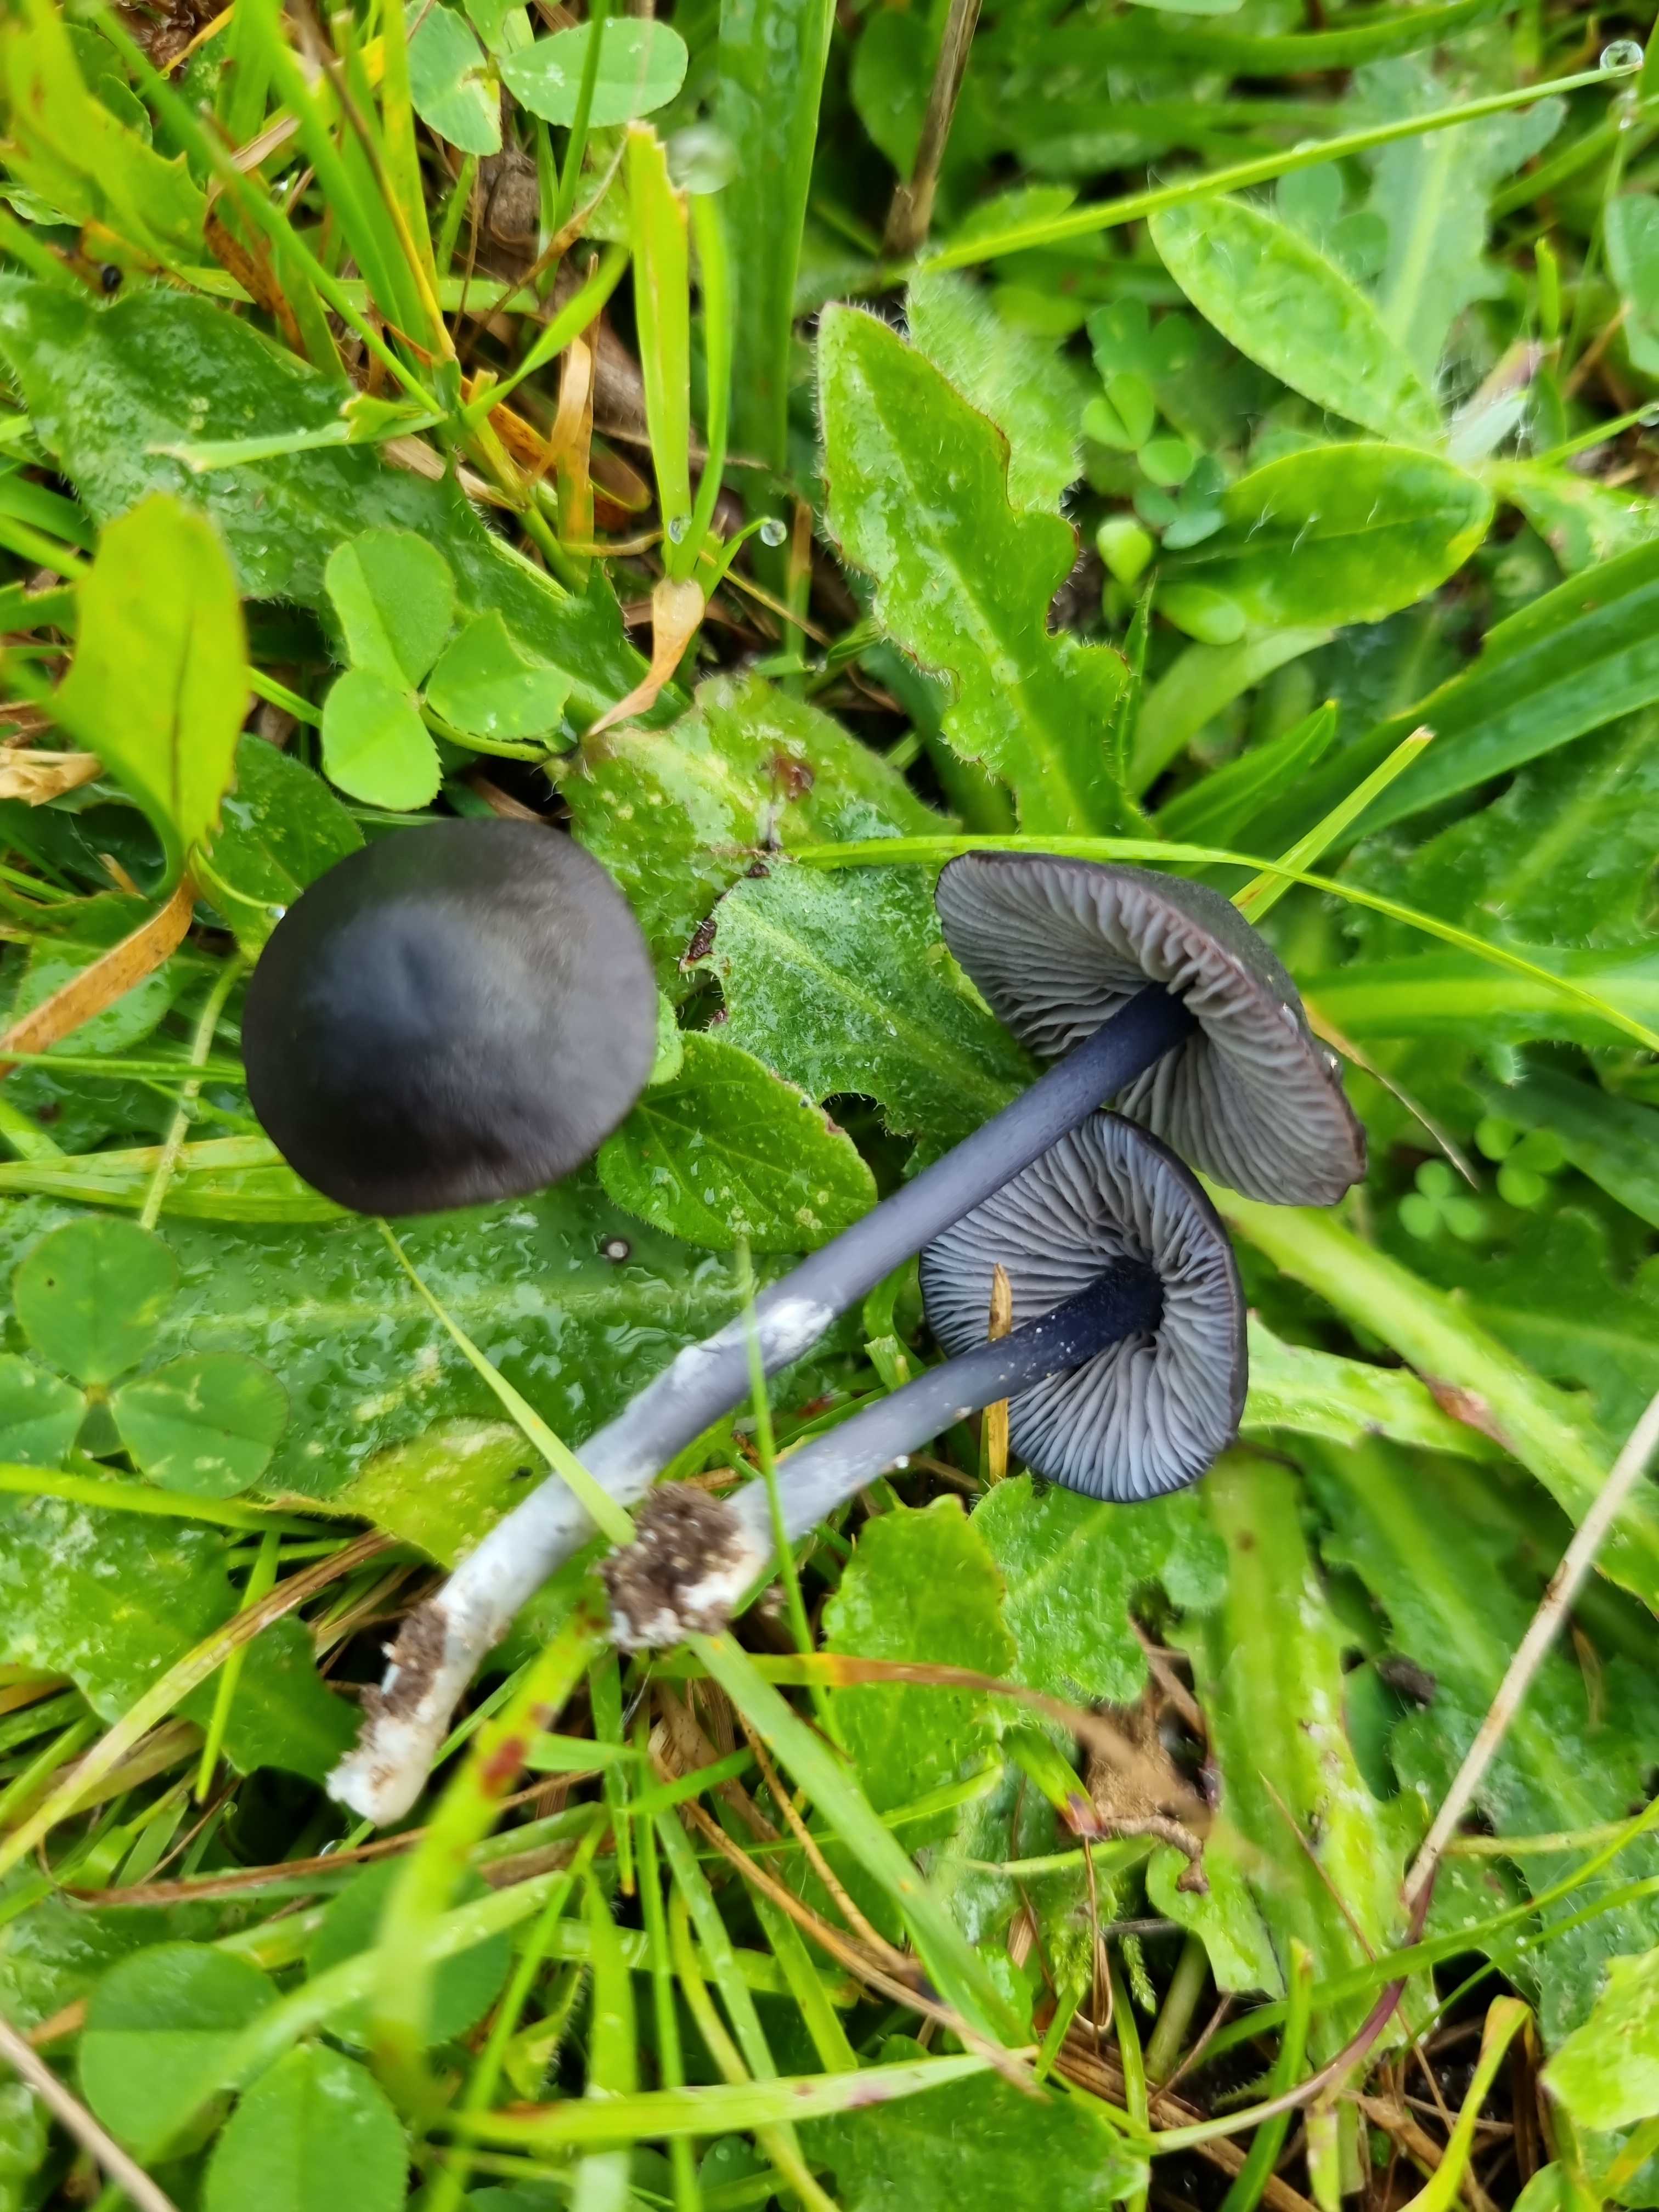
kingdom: Fungi
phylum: Basidiomycota
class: Agaricomycetes
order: Agaricales
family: Entolomataceae
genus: Entoloma
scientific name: Entoloma chalybeum
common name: blåbladet rødblad
